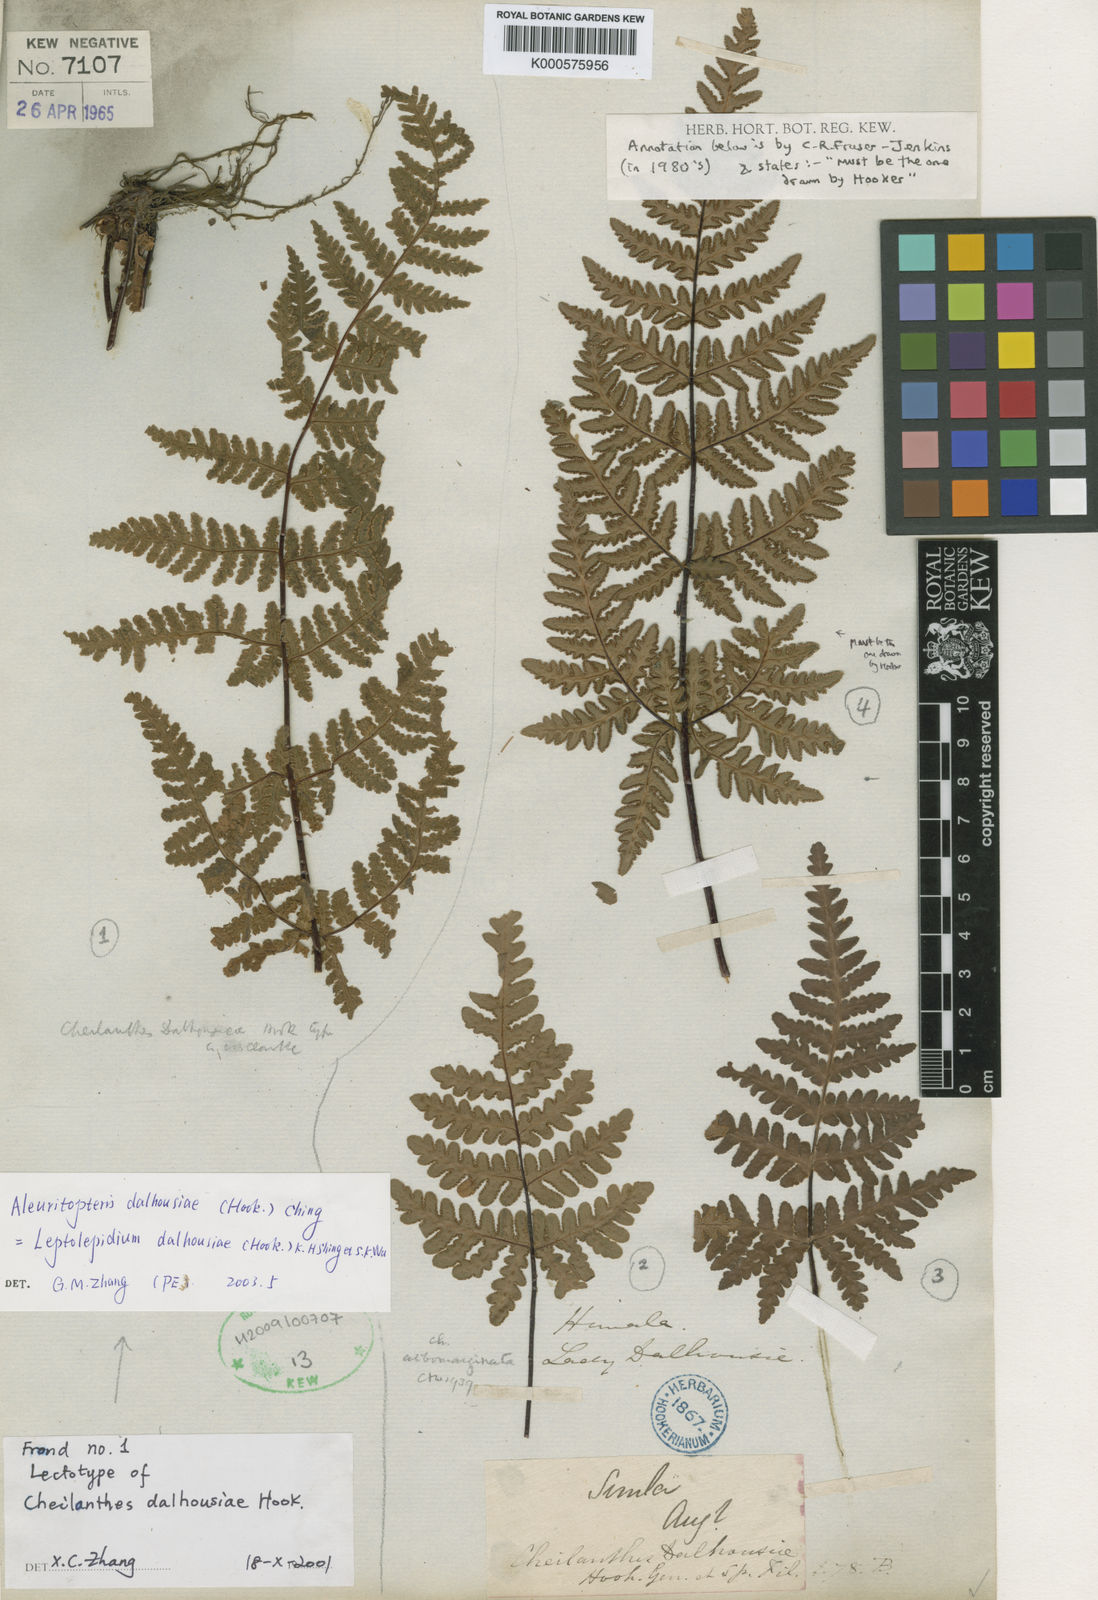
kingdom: Plantae
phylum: Tracheophyta
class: Polypodiopsida
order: Polypodiales
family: Pteridaceae
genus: Aleuritopteris
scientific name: Aleuritopteris albomarginata
